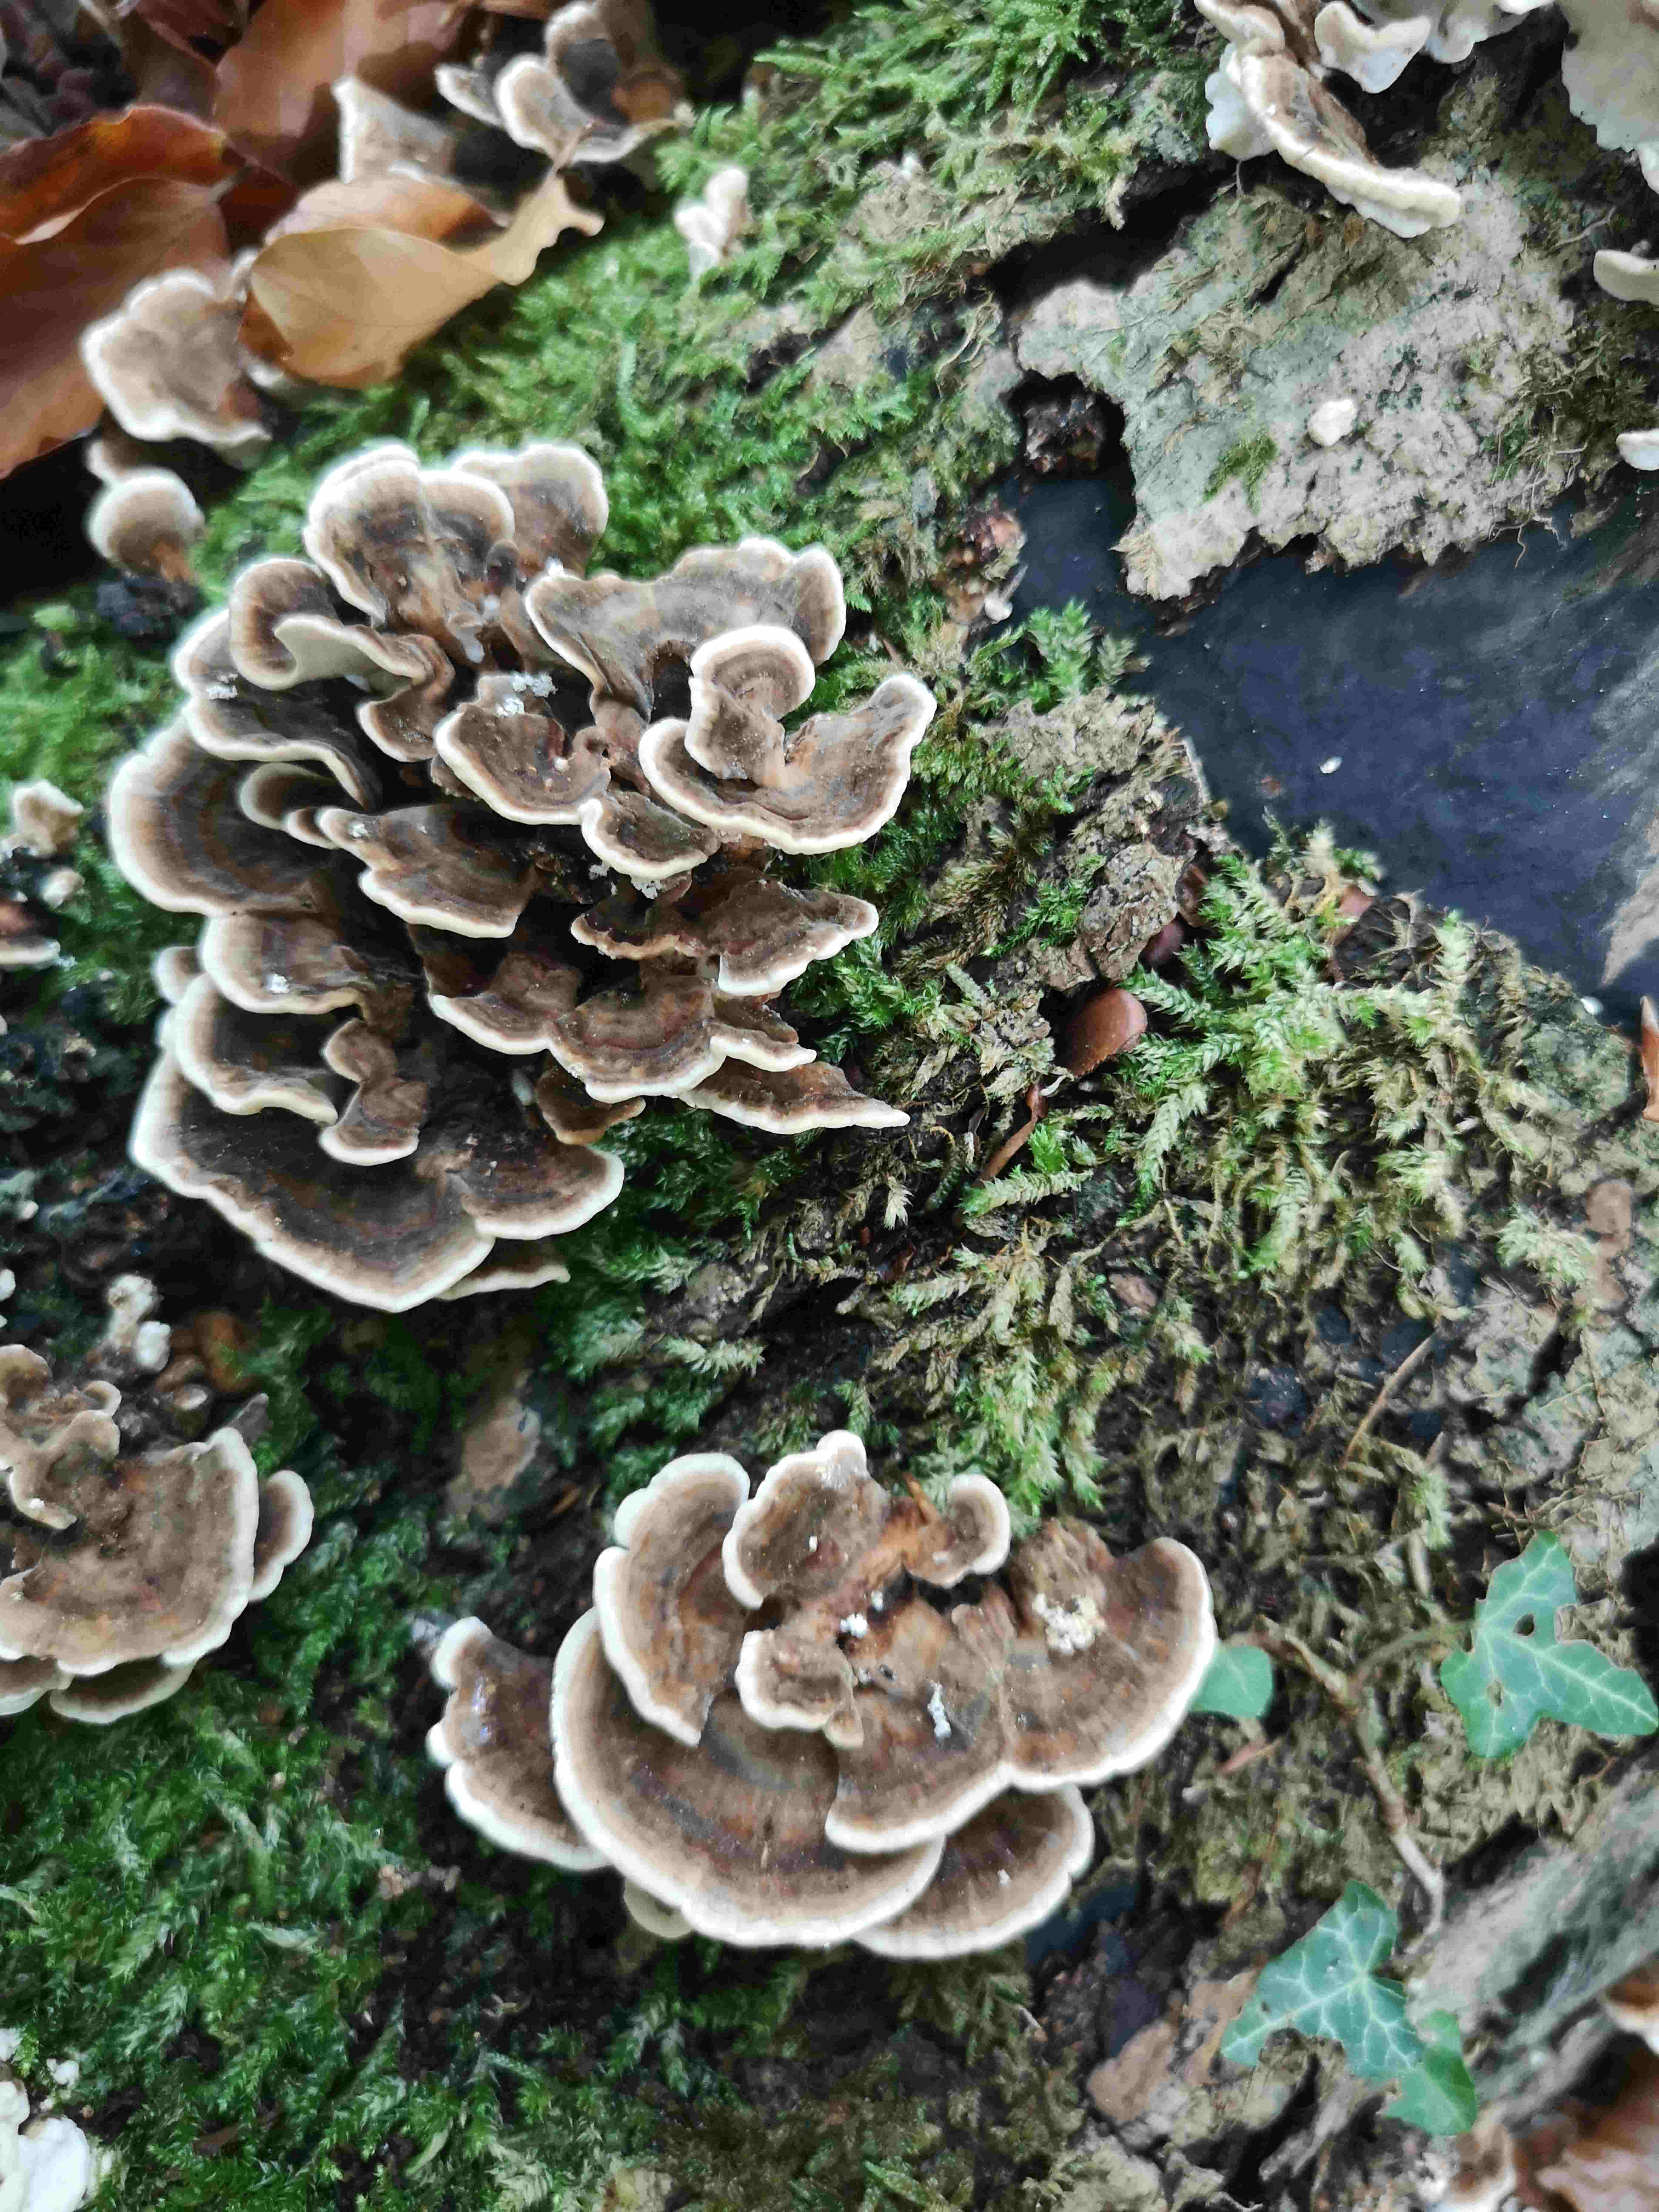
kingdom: Fungi
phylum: Basidiomycota
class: Agaricomycetes
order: Polyporales
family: Polyporaceae
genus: Trametes
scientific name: Trametes versicolor
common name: broget læderporesvamp
